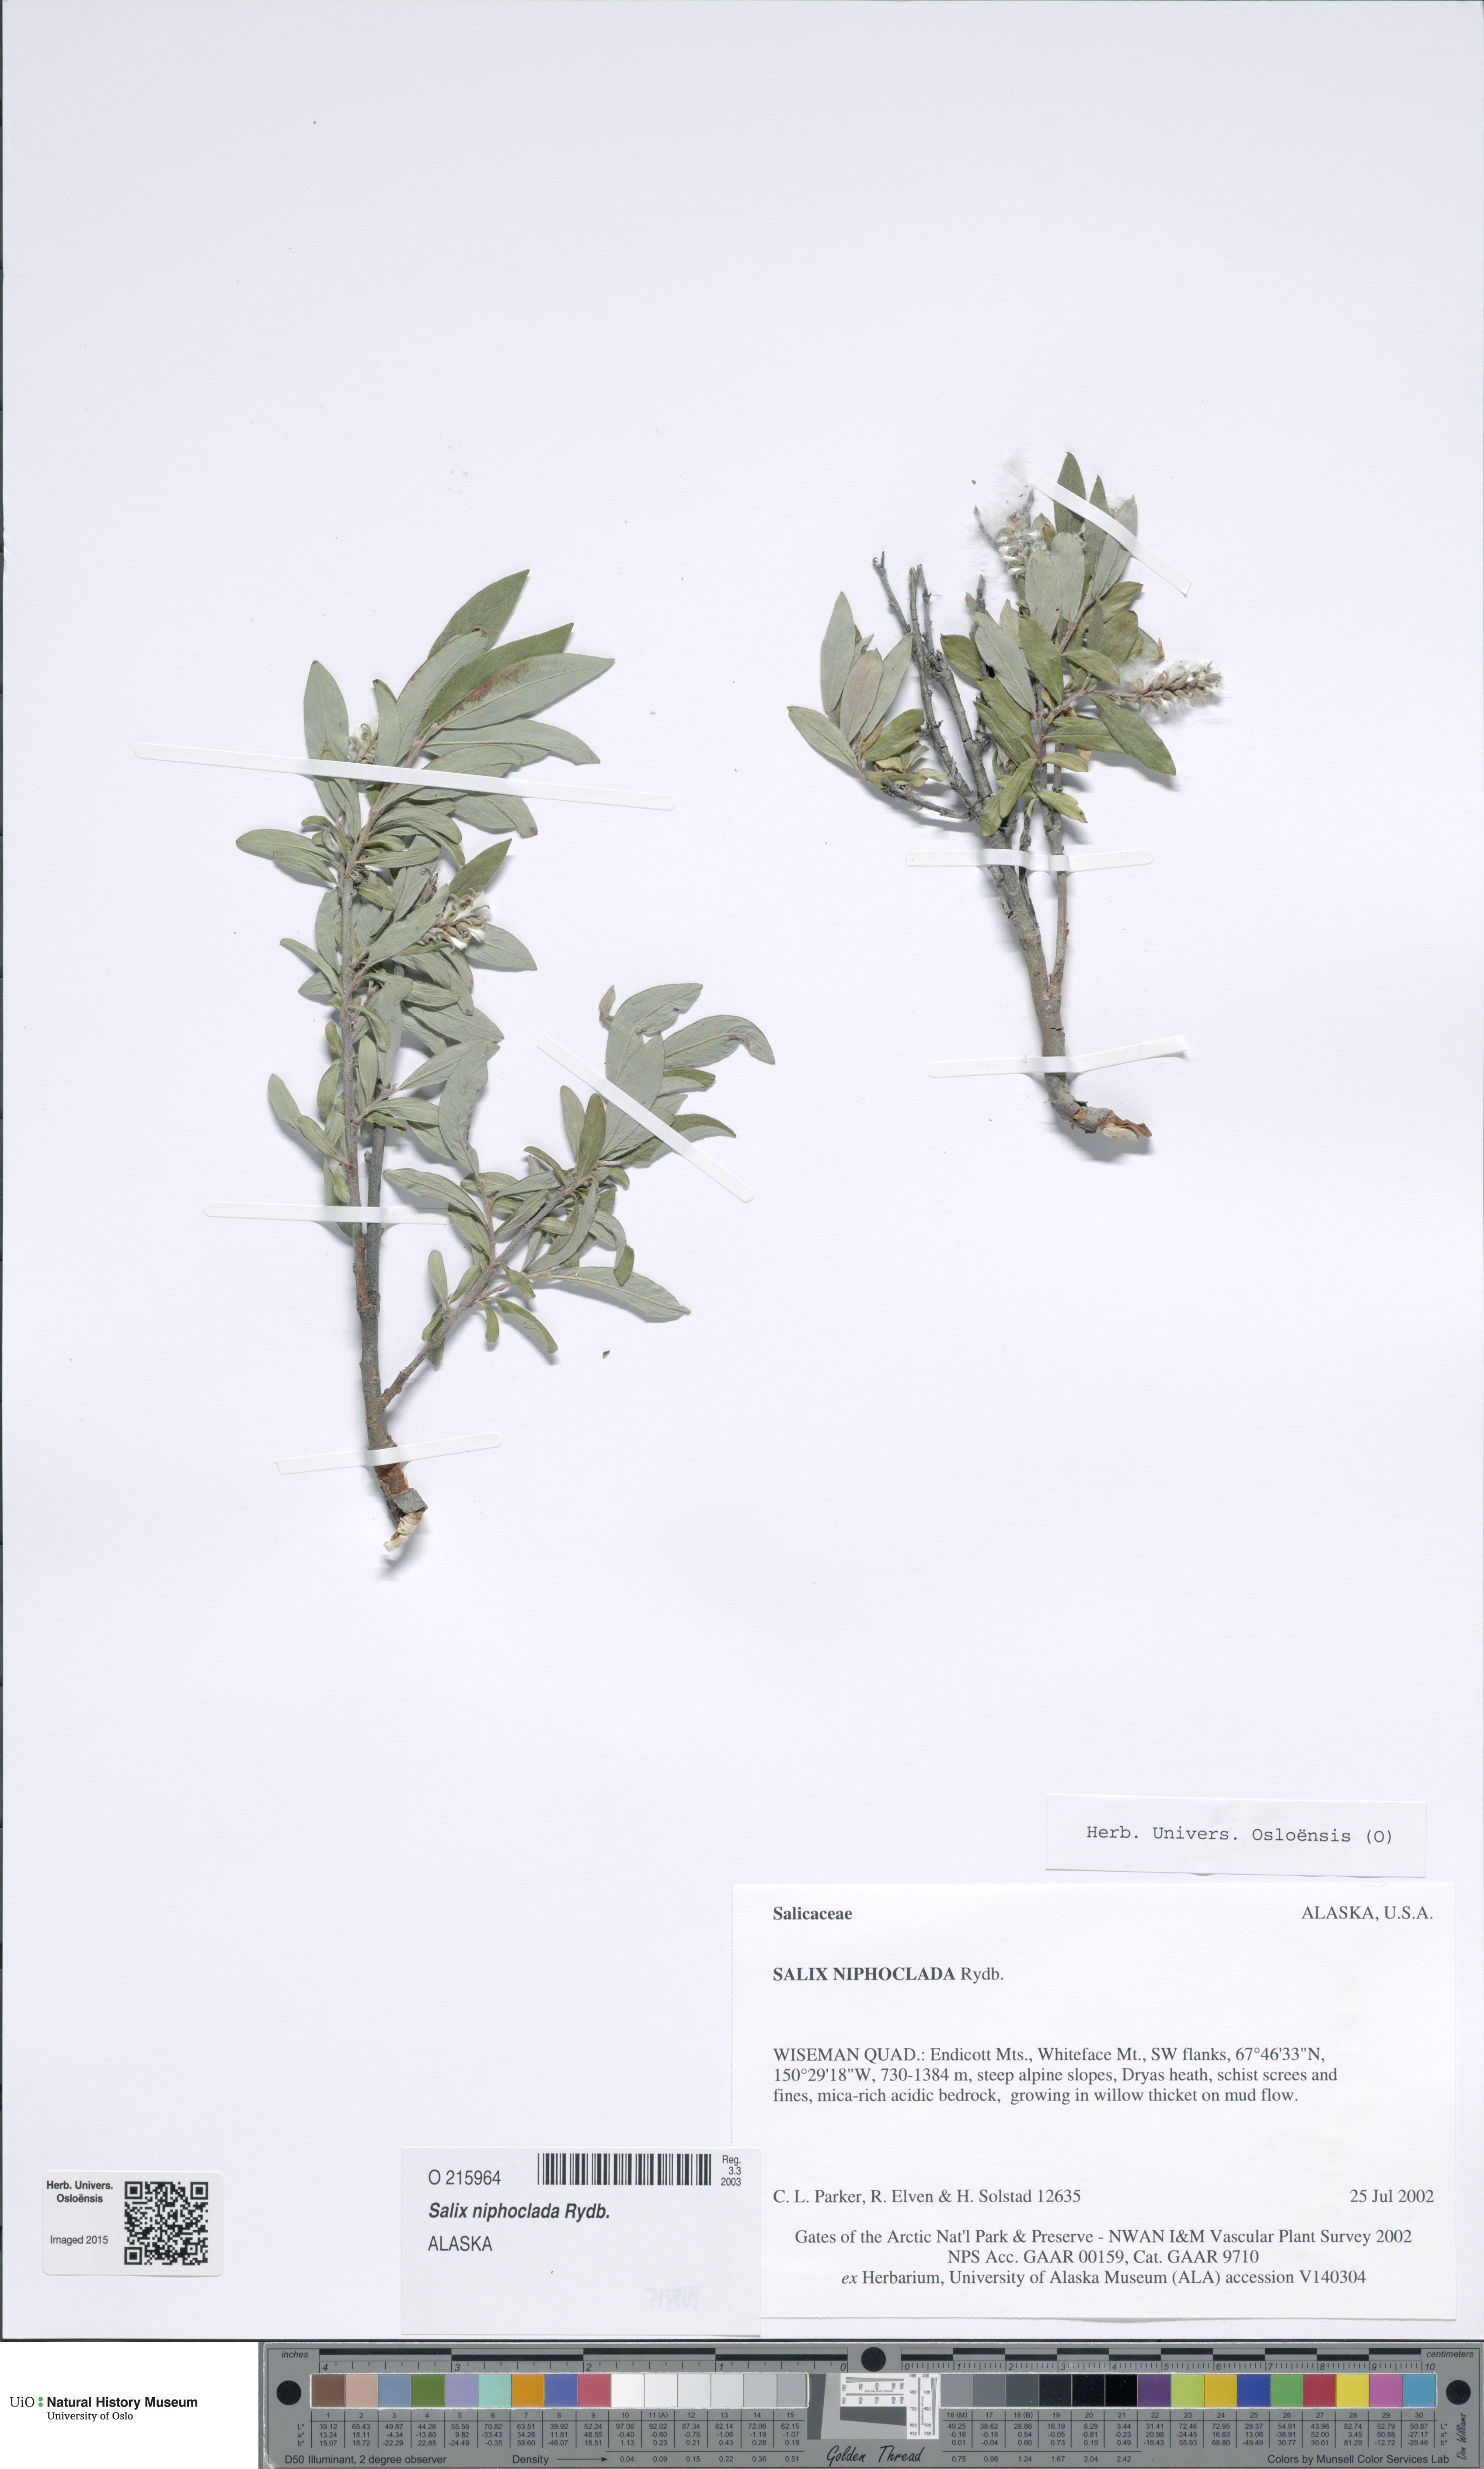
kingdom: Plantae
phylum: Tracheophyta
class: Magnoliopsida
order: Malpighiales
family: Salicaceae
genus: Salix
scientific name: Salix niphoclada
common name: Barren-ground willow
